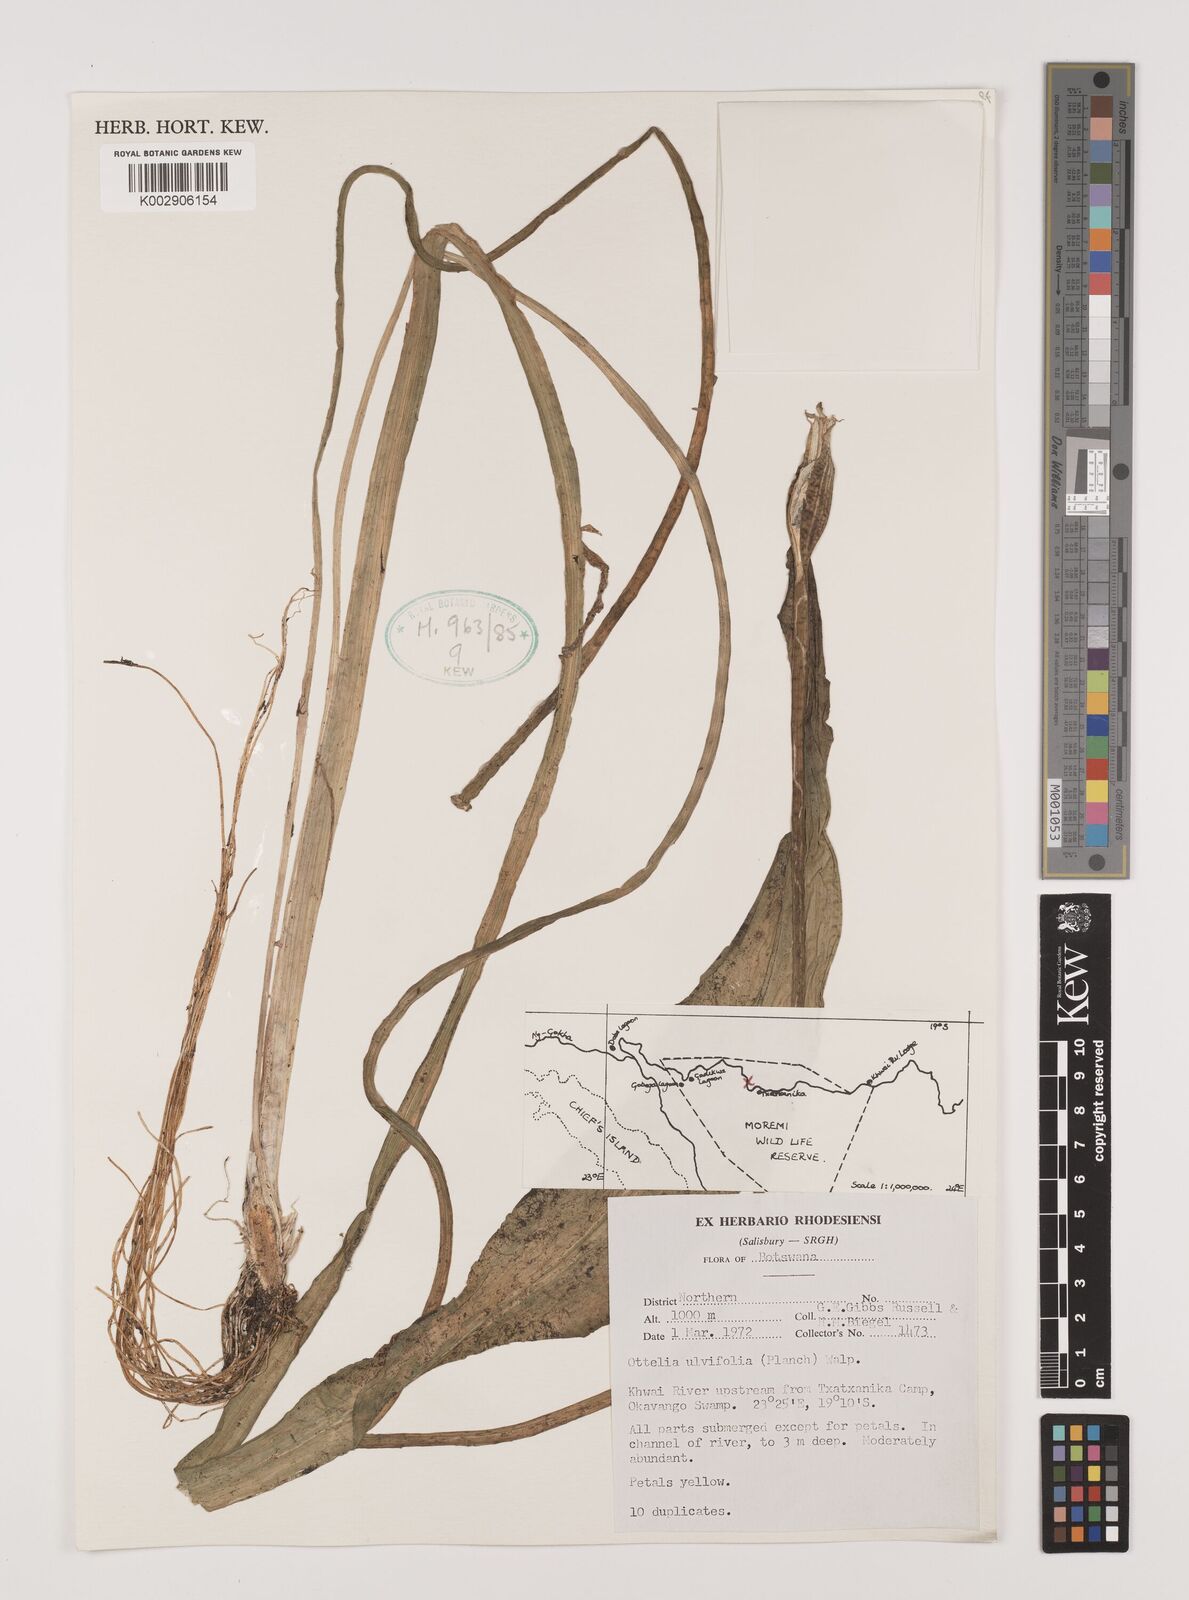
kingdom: Plantae
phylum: Tracheophyta
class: Liliopsida
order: Alismatales
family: Hydrocharitaceae
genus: Ottelia
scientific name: Ottelia ulvifolia
